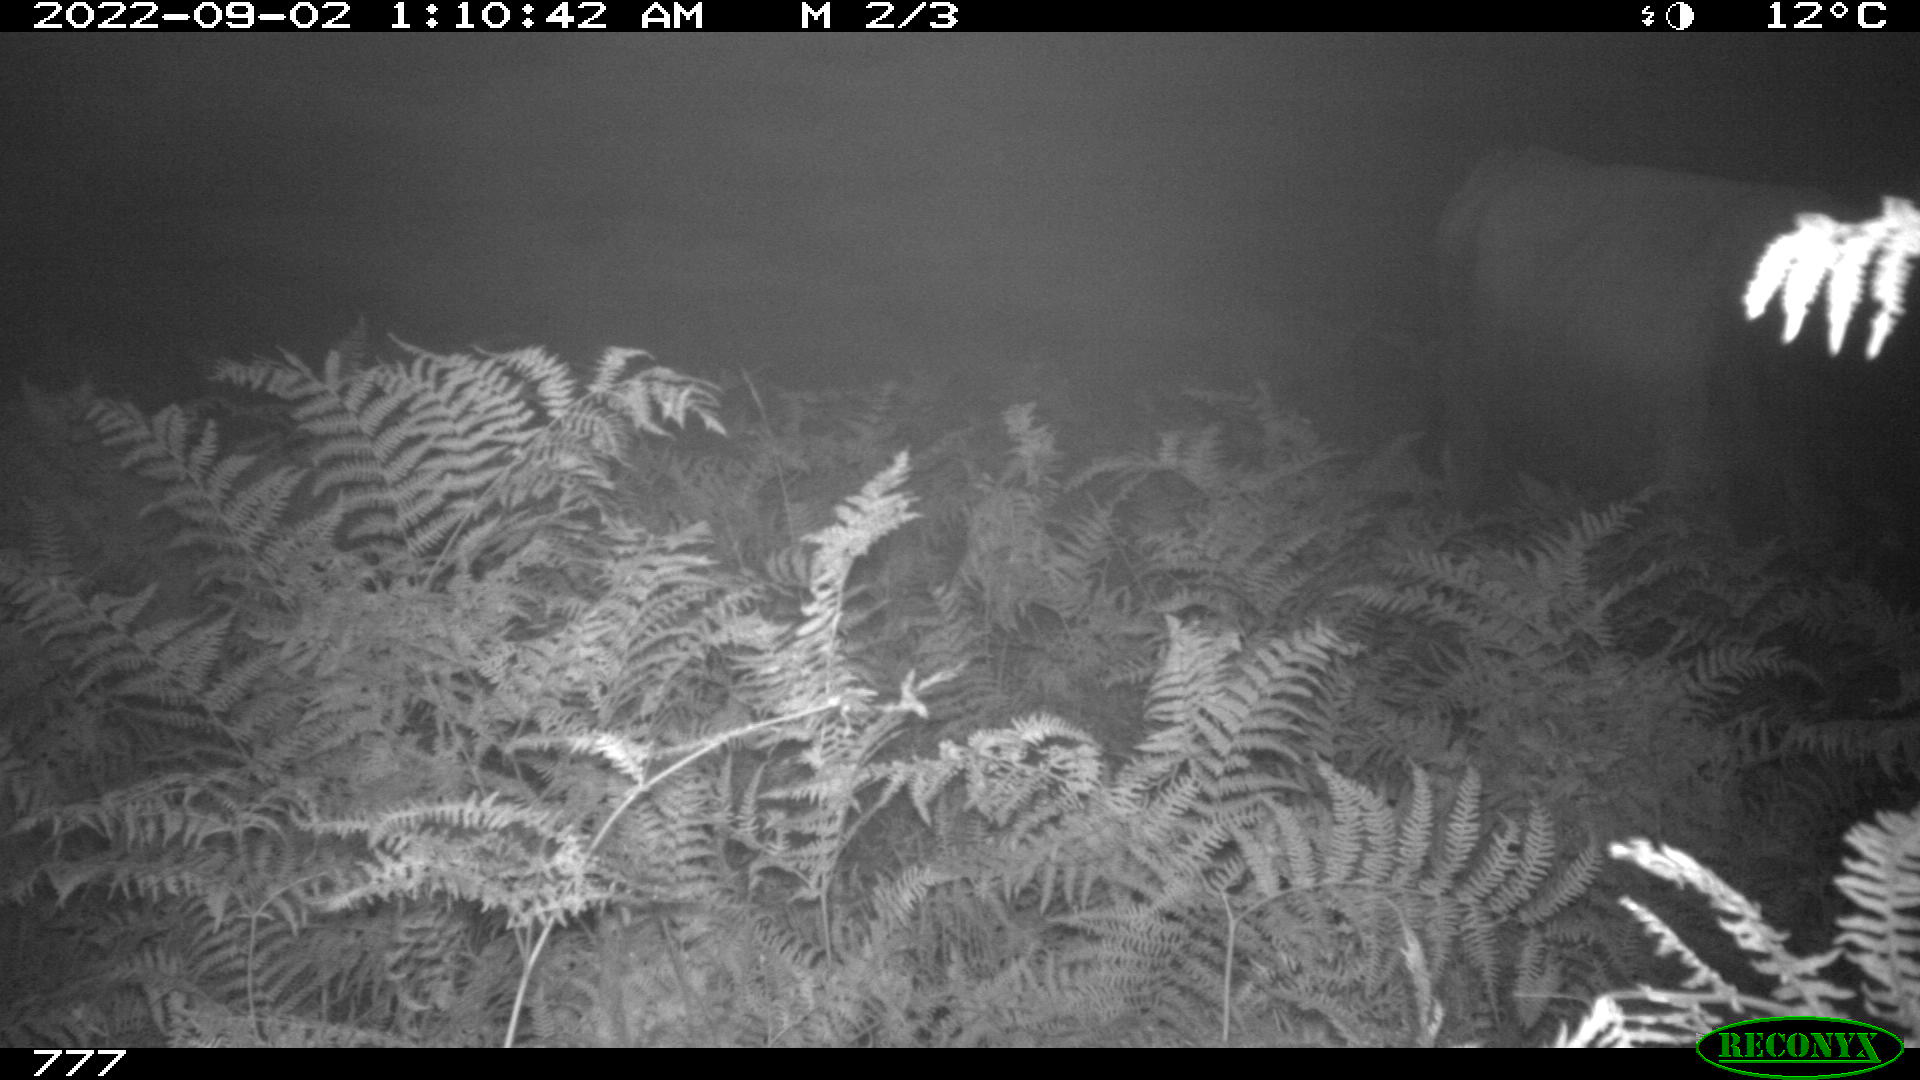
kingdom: Animalia
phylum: Chordata
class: Mammalia
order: Artiodactyla
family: Bovidae
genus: Bos
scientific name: Bos taurus
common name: Domesticated cattle
